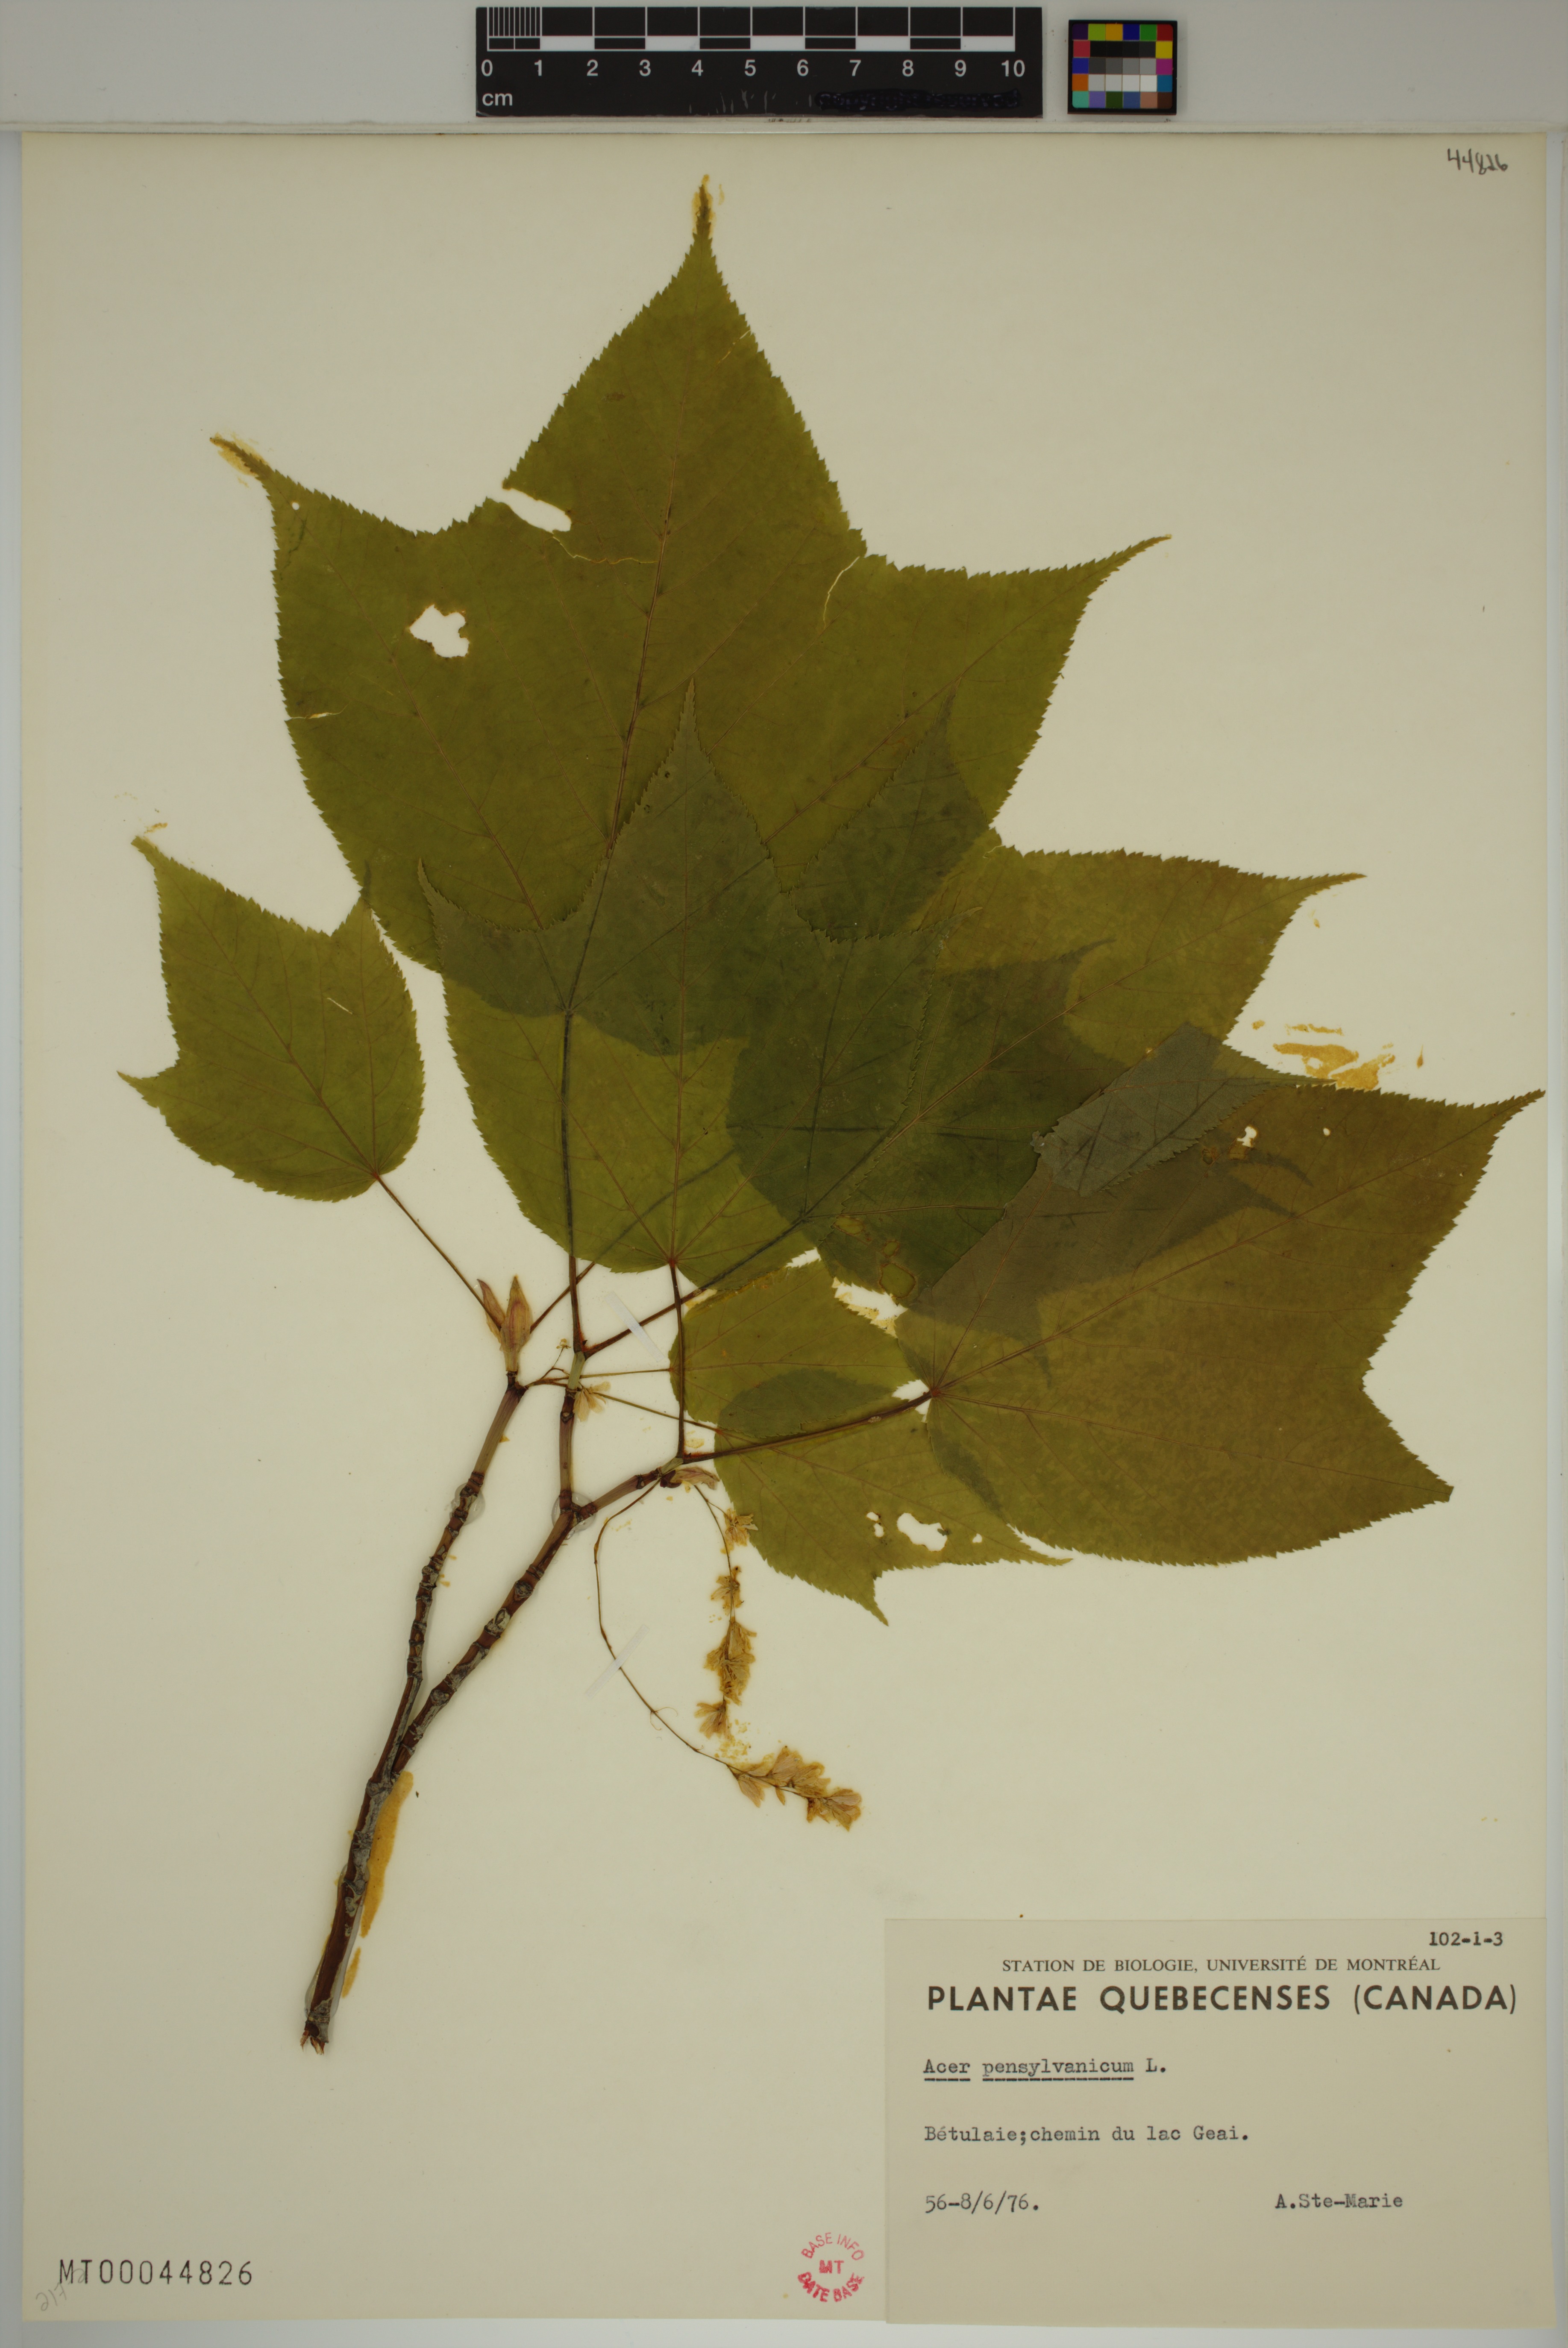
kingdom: Plantae
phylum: Tracheophyta
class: Magnoliopsida
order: Sapindales
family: Sapindaceae
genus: Acer
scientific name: Acer pensylvanicum
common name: Moosewood
